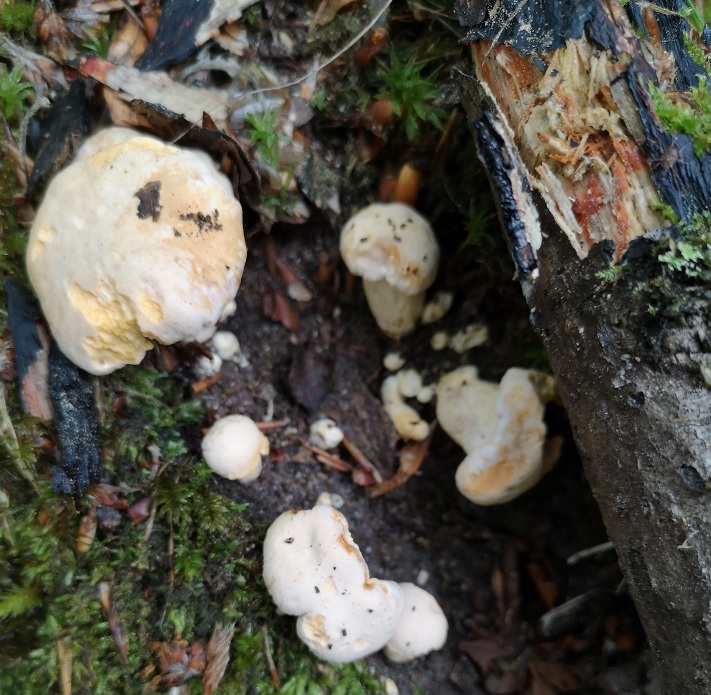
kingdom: Fungi
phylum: Basidiomycota
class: Agaricomycetes
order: Cantharellales
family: Hydnaceae
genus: Cantharellus
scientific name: Cantharellus pallens
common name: bleg kantarel
